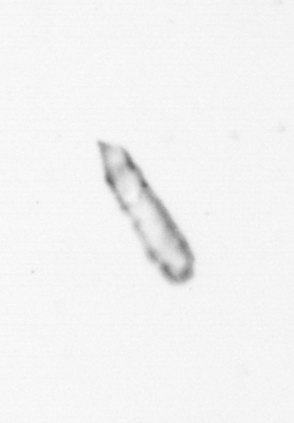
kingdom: Chromista
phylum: Ochrophyta
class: Bacillariophyceae
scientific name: Bacillariophyceae
